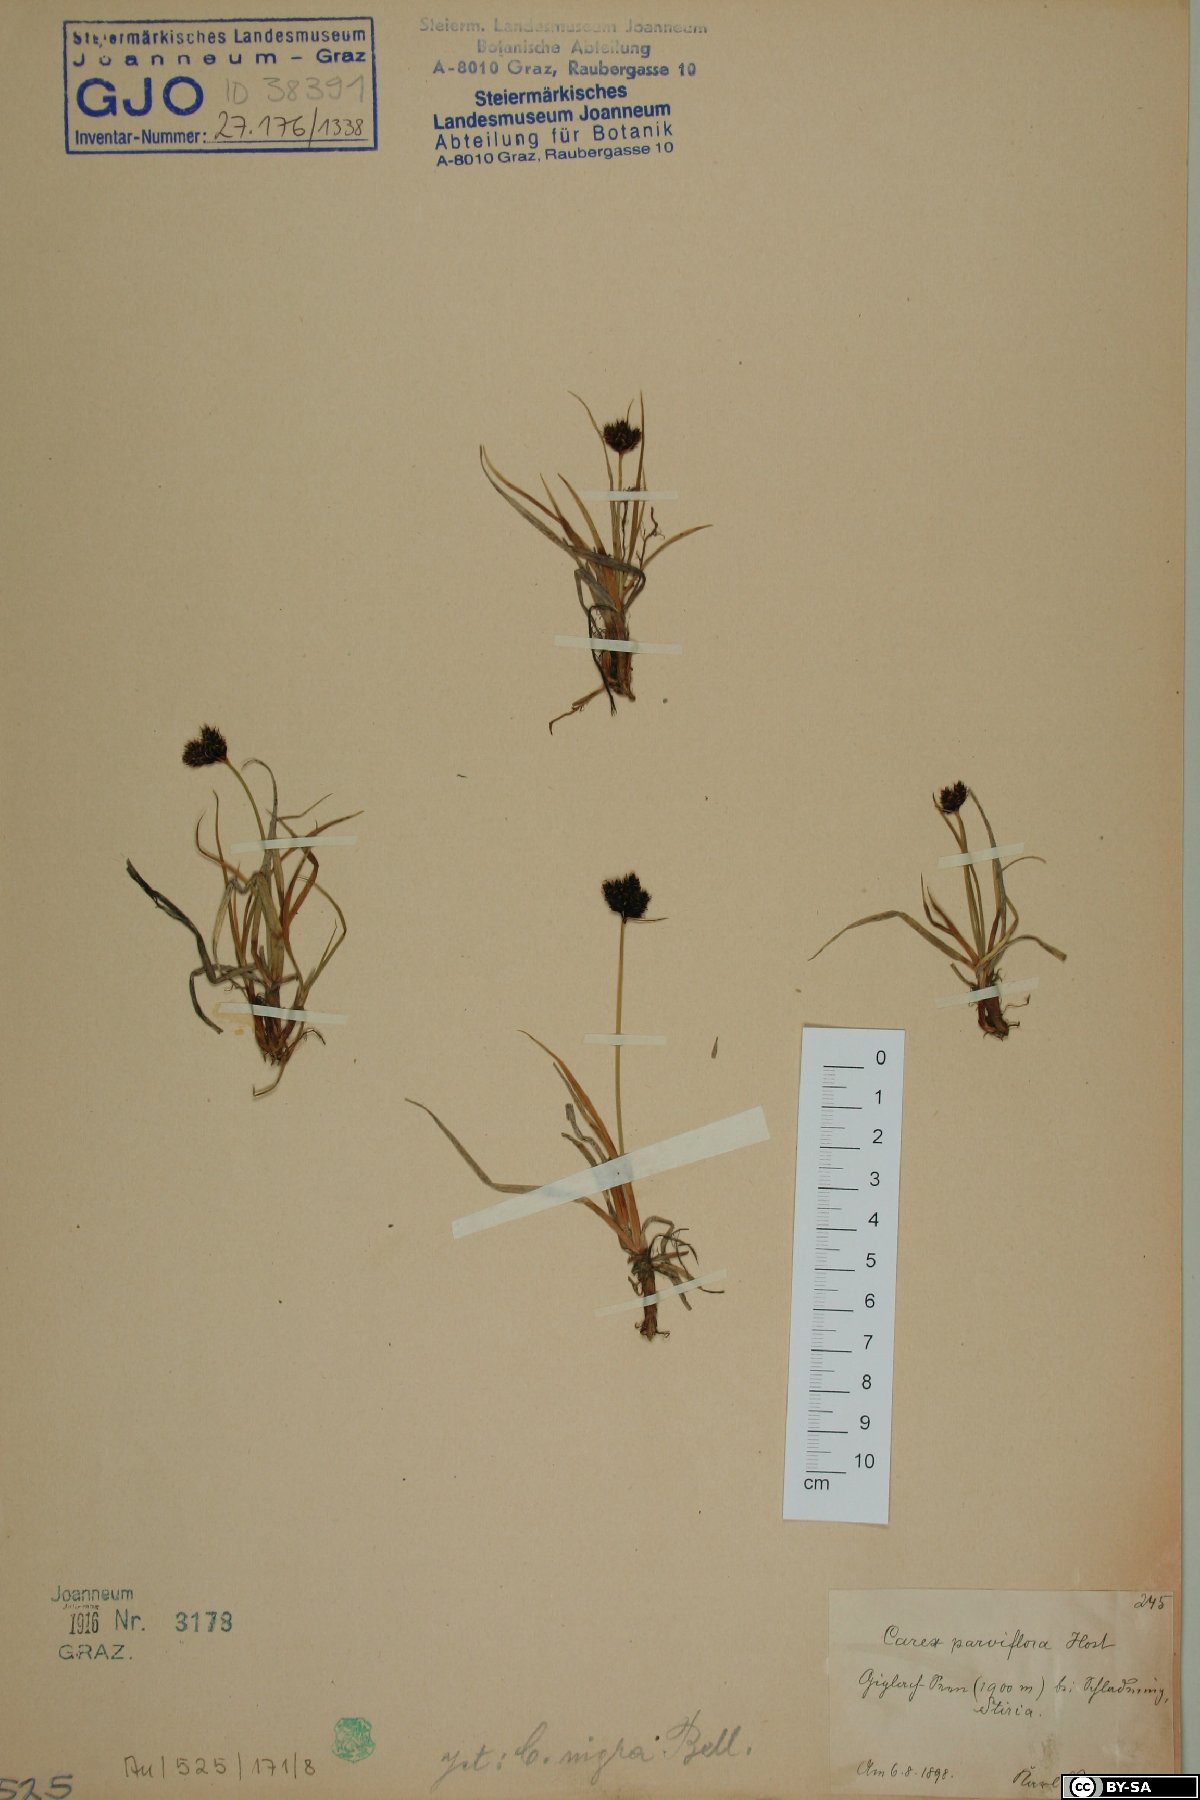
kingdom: Plantae
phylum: Tracheophyta
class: Liliopsida
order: Poales
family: Cyperaceae
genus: Carex
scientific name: Carex parviflora
